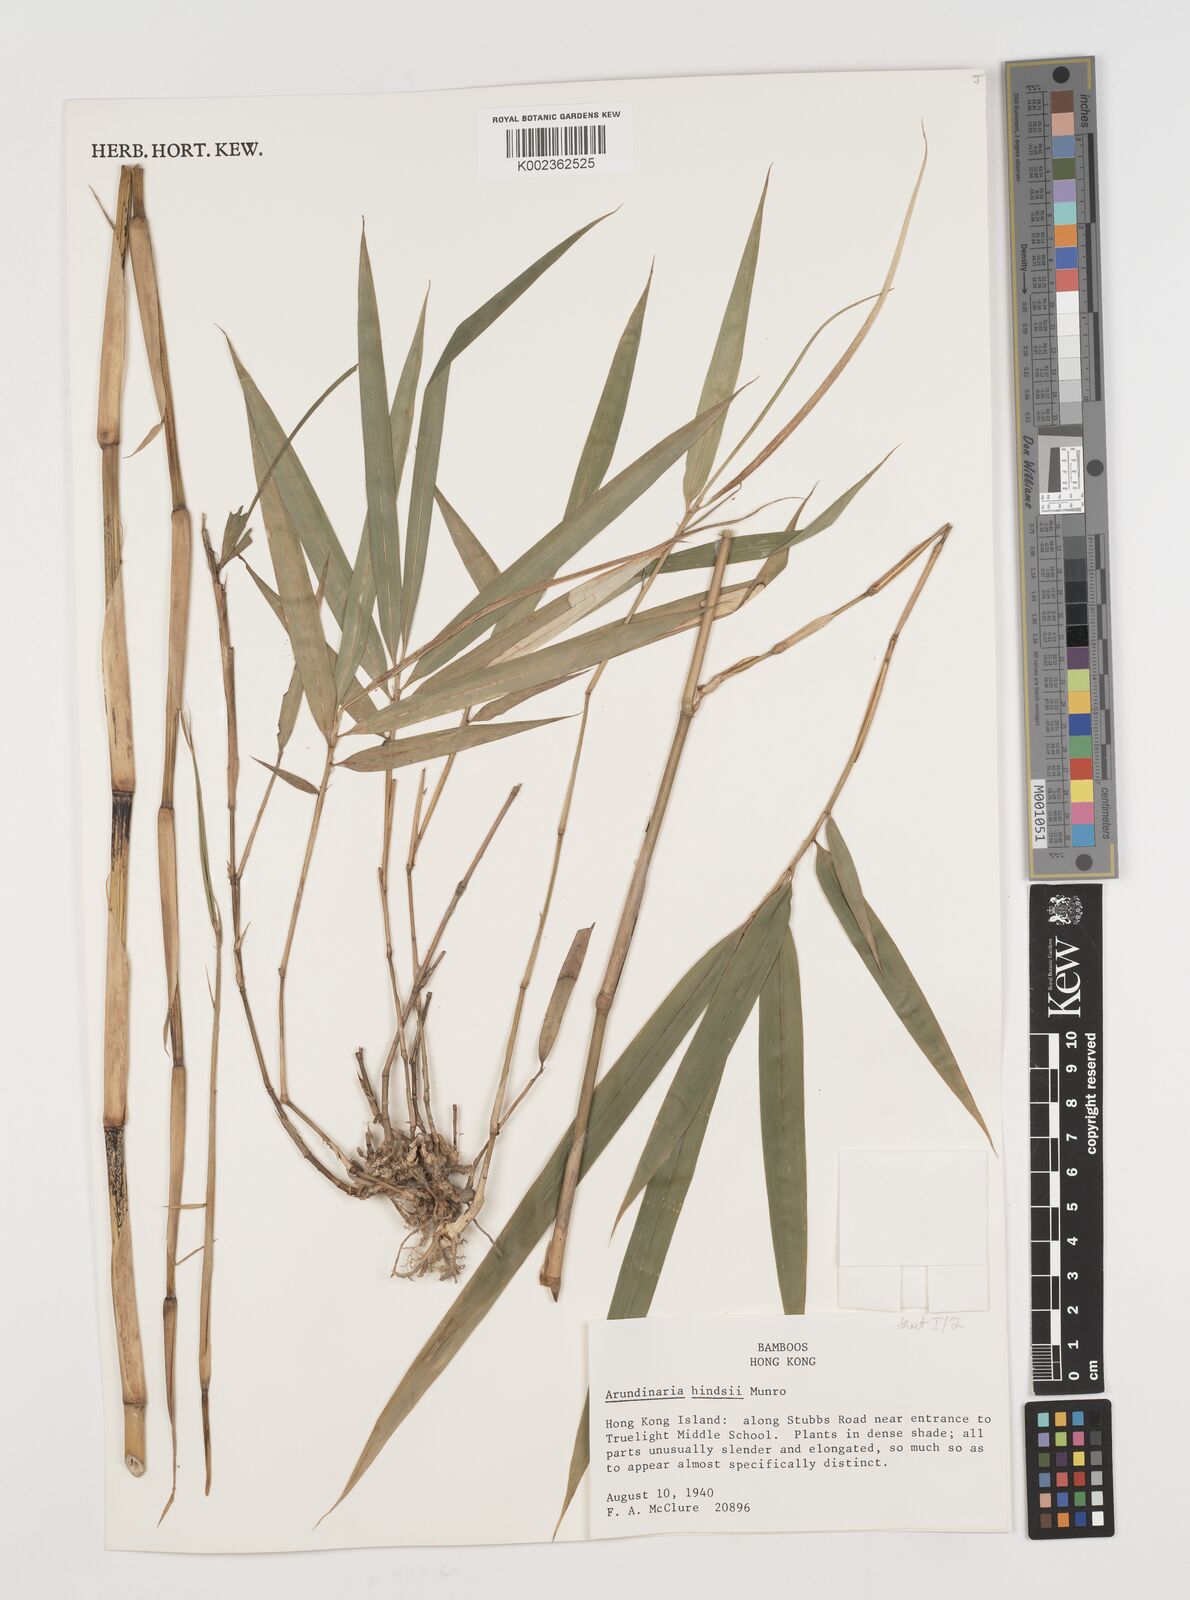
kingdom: Plantae
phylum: Tracheophyta
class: Liliopsida
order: Poales
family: Poaceae
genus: Pseudosasa
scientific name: Pseudosasa hindsii
